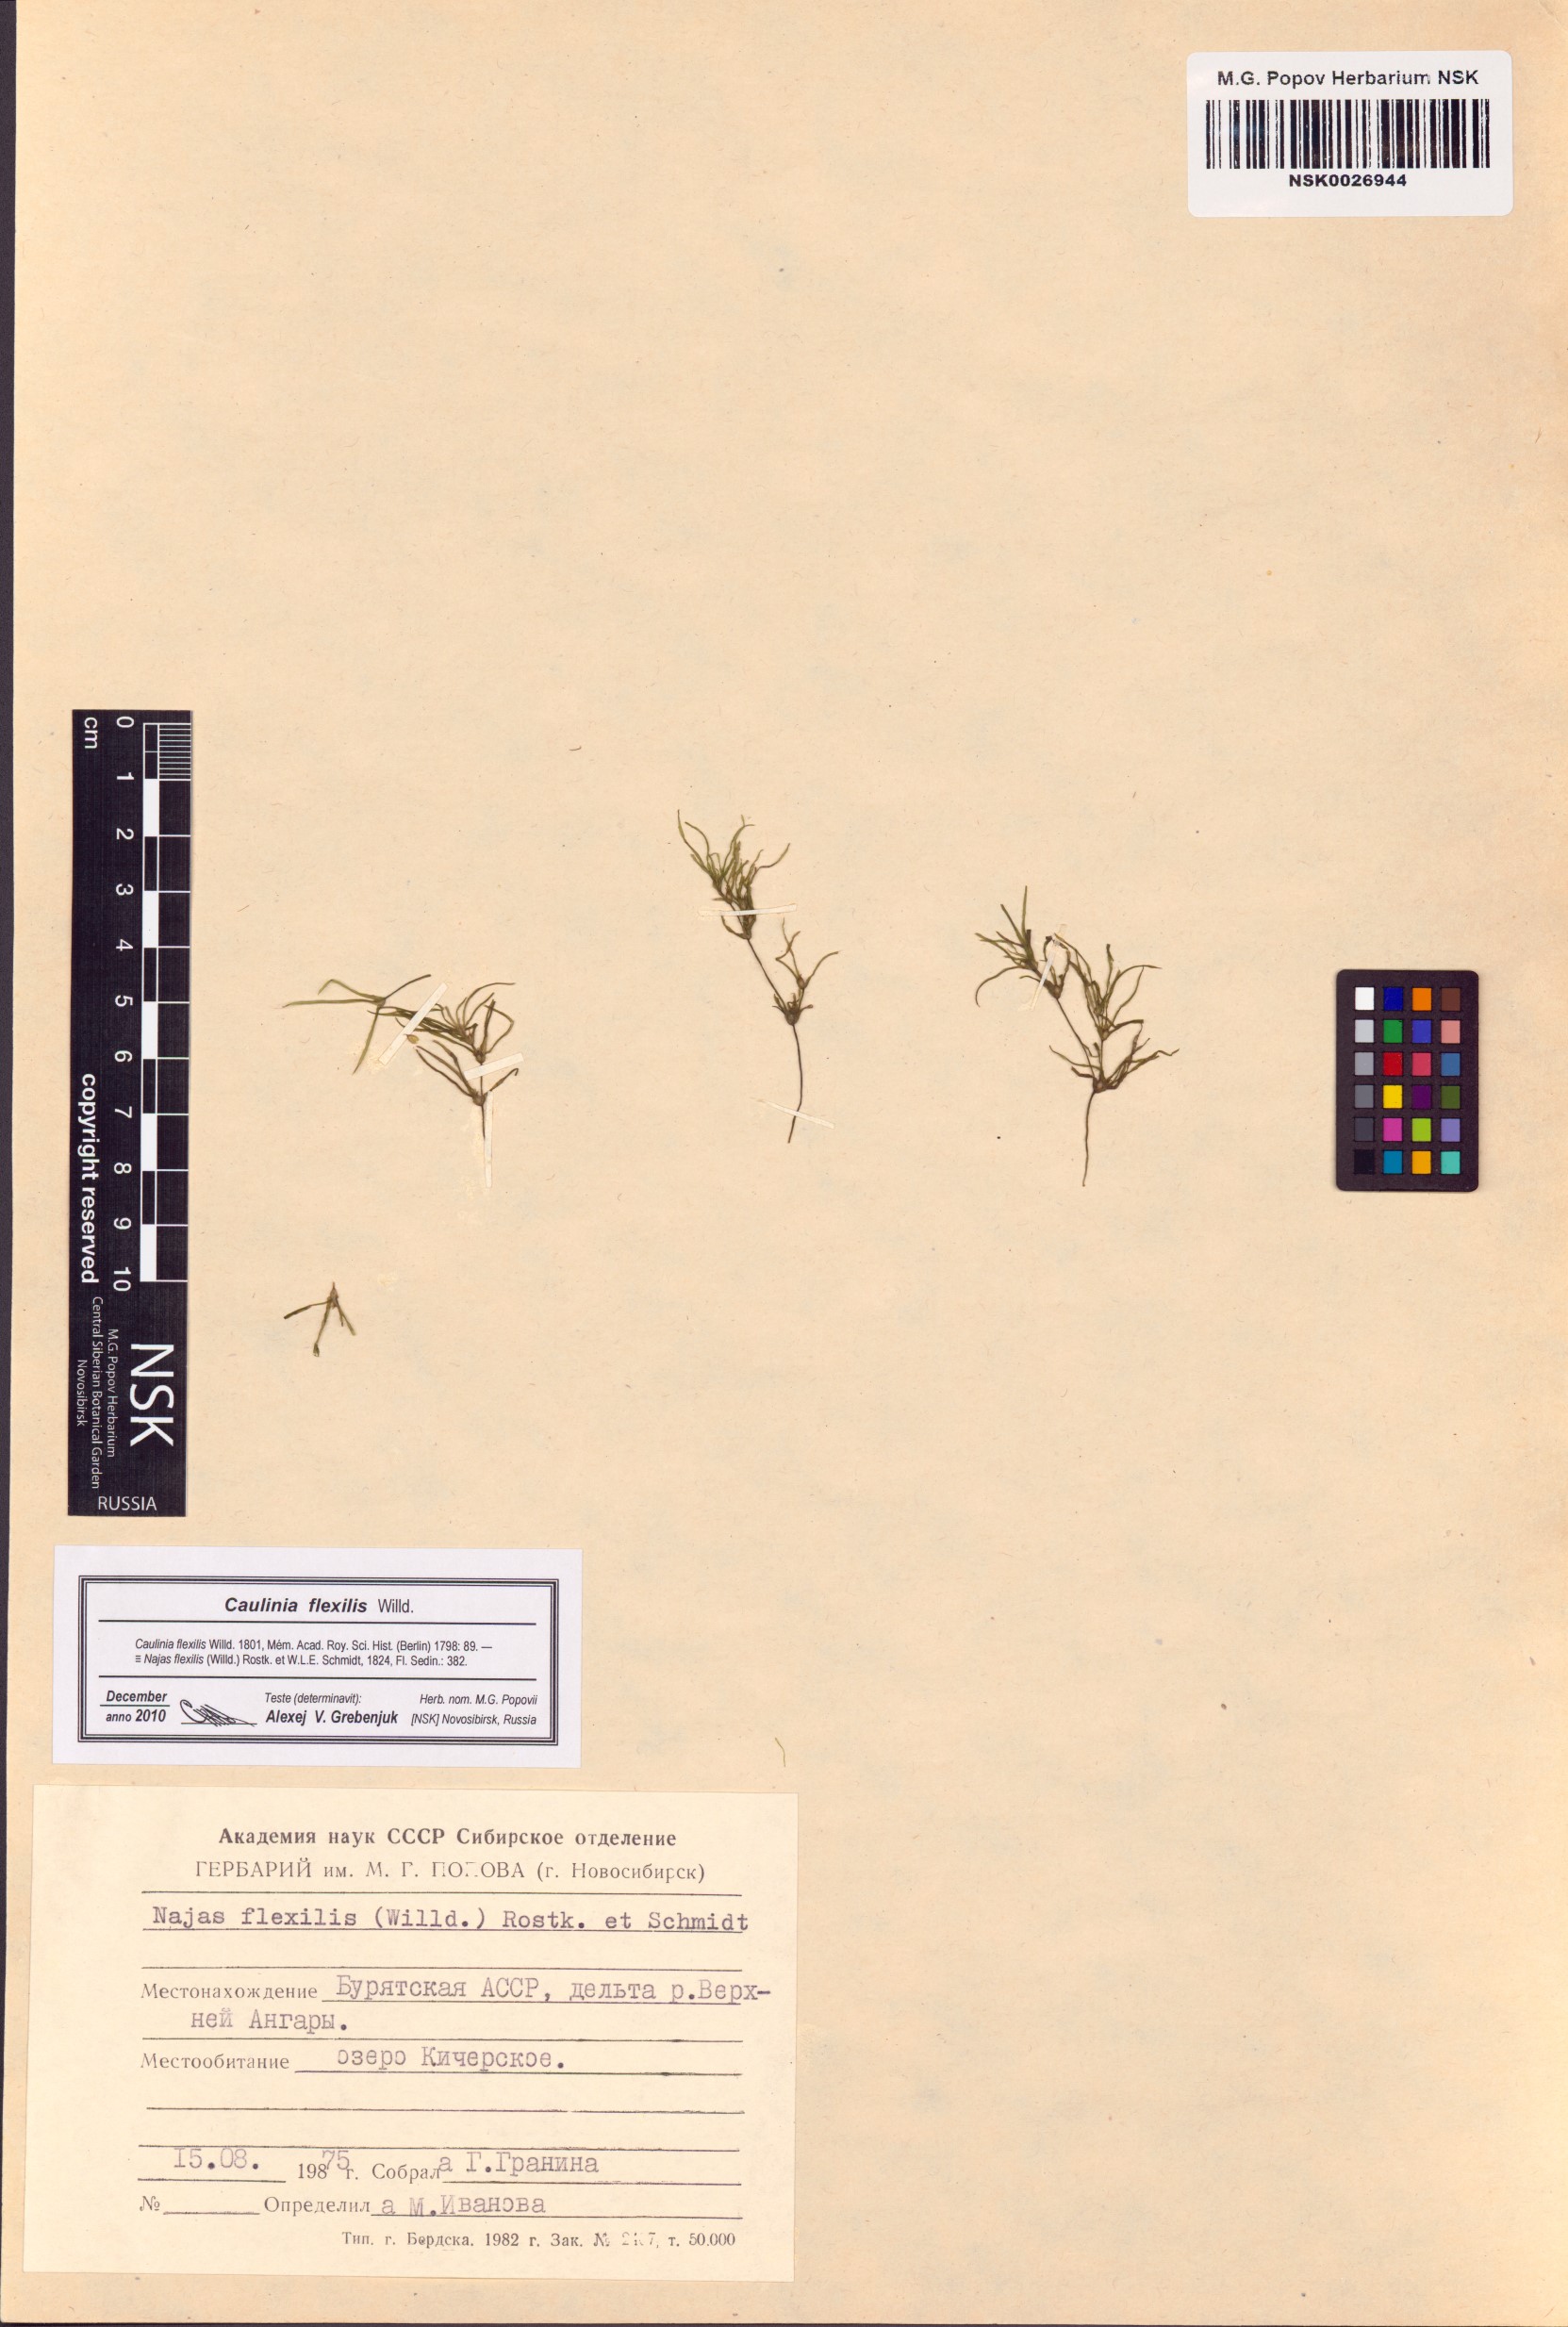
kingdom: Plantae
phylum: Tracheophyta
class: Liliopsida
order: Alismatales
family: Hydrocharitaceae
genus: Najas
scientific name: Najas flexilis
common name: Slender naiad
